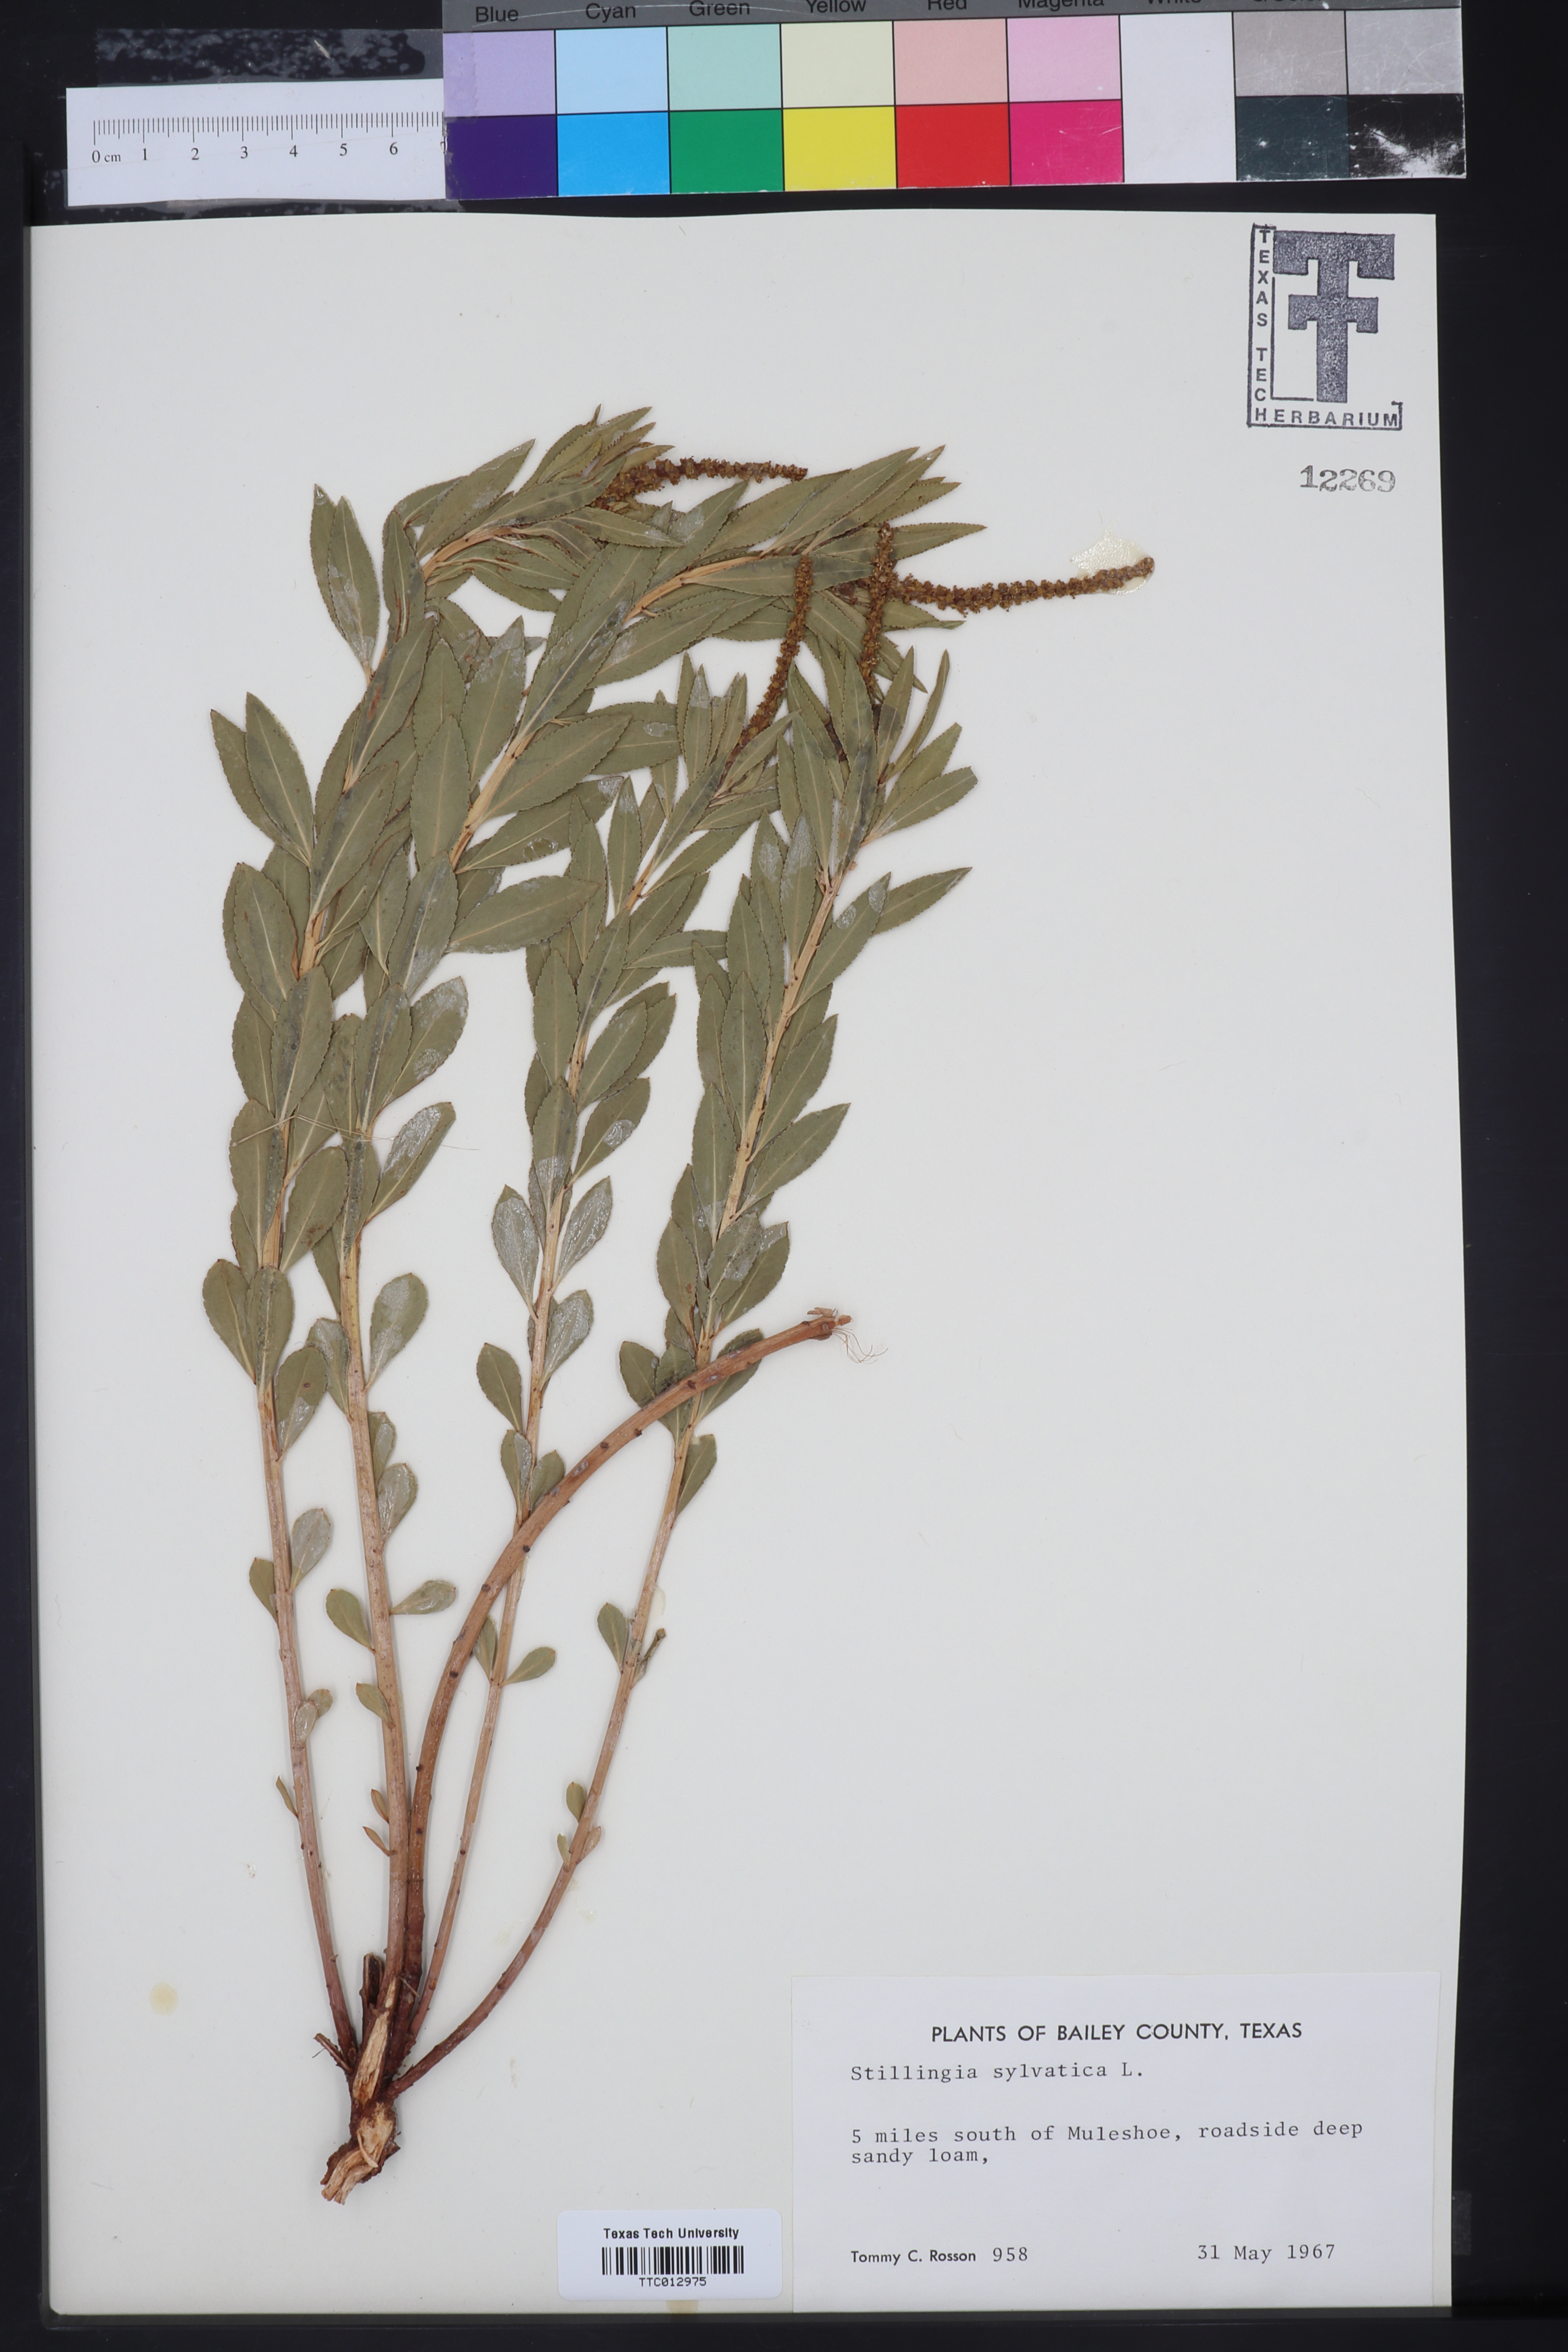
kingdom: Plantae
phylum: Tracheophyta
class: Magnoliopsida
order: Malpighiales
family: Euphorbiaceae
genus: Stillingia
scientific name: Stillingia sylvatica
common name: Queen's-delight
